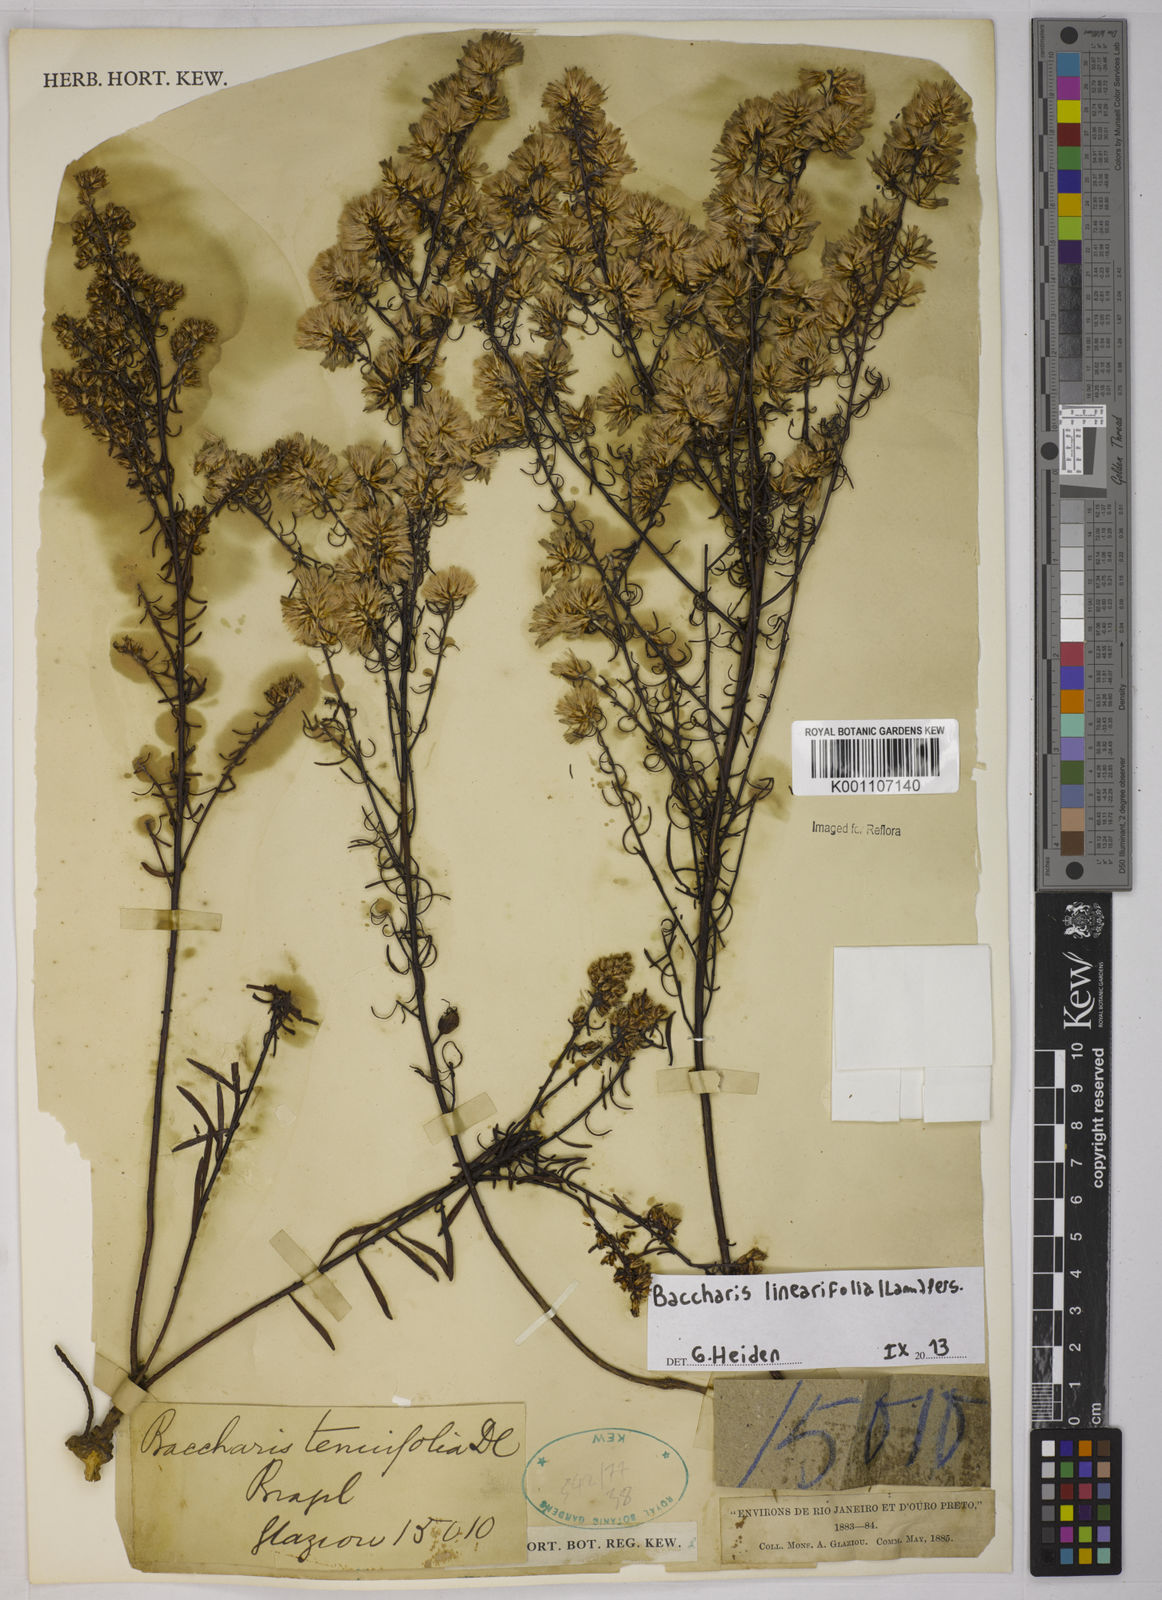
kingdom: Plantae
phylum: Tracheophyta
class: Magnoliopsida
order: Asterales
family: Asteraceae
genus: Baccharis
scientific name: Baccharis linearifolia
